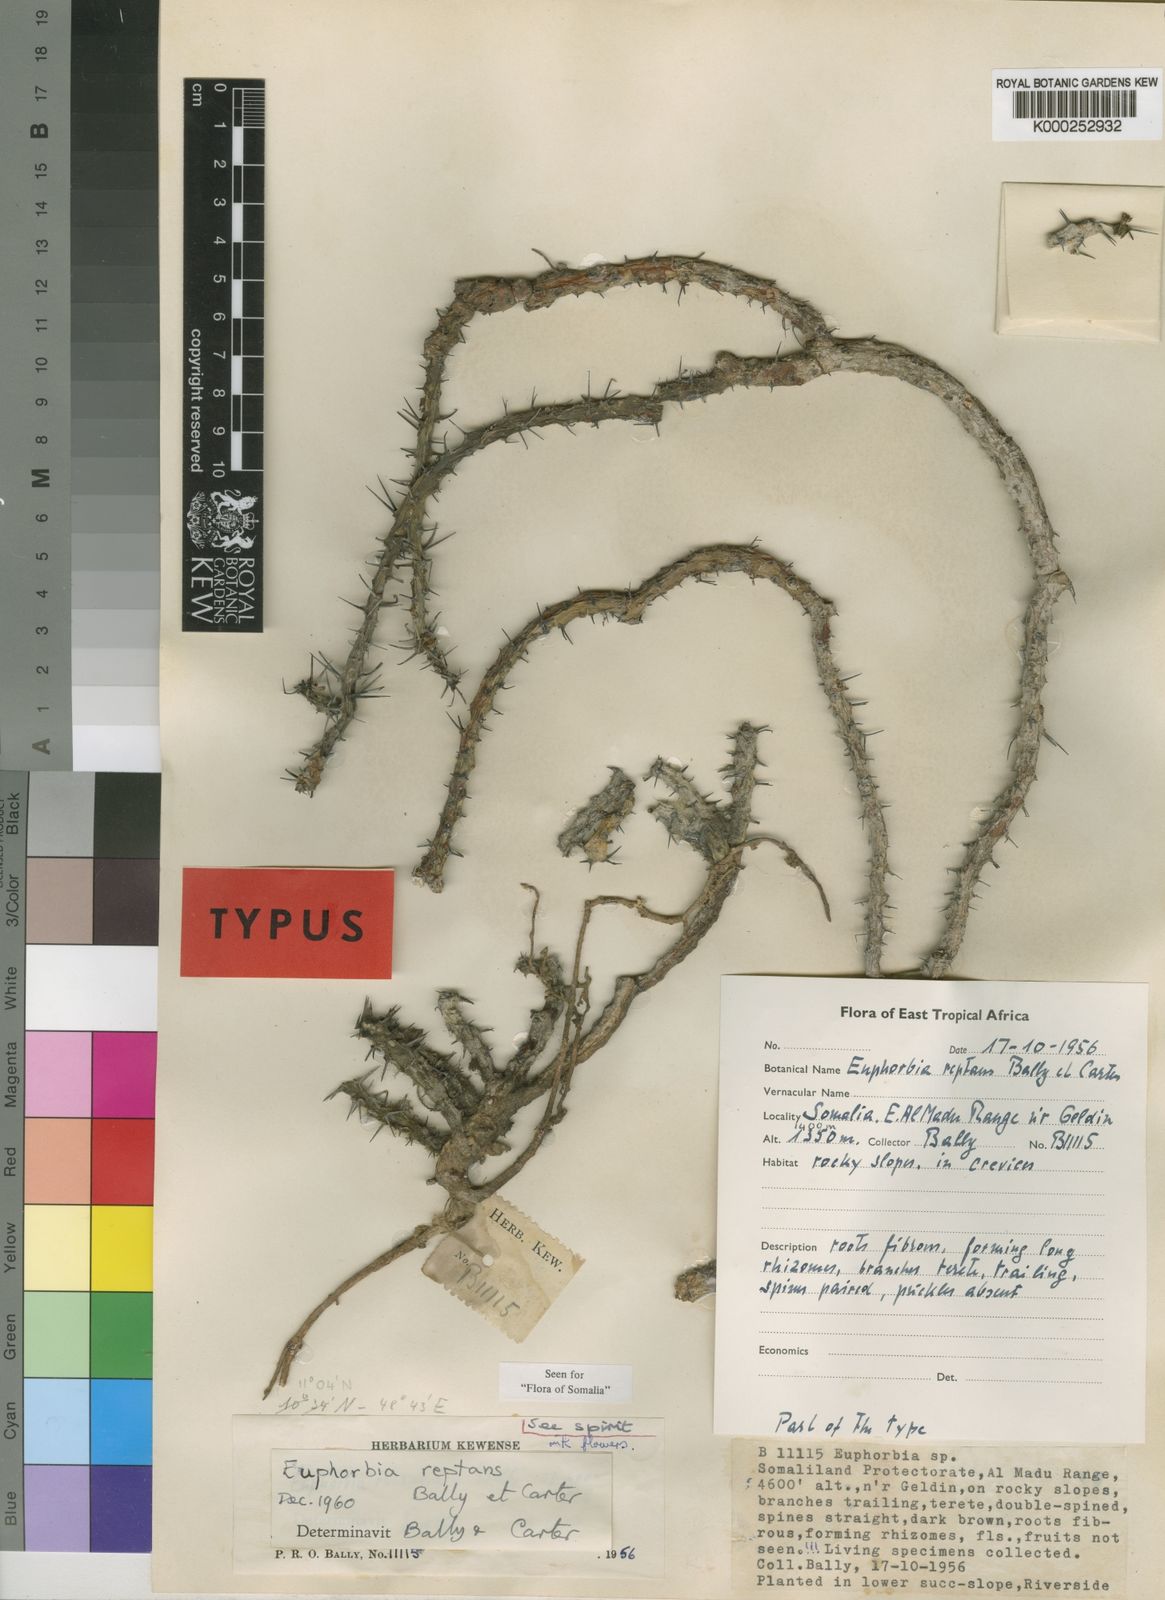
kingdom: Plantae
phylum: Tracheophyta
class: Magnoliopsida
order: Malpighiales
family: Euphorbiaceae
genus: Euphorbia
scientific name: Euphorbia reptans
